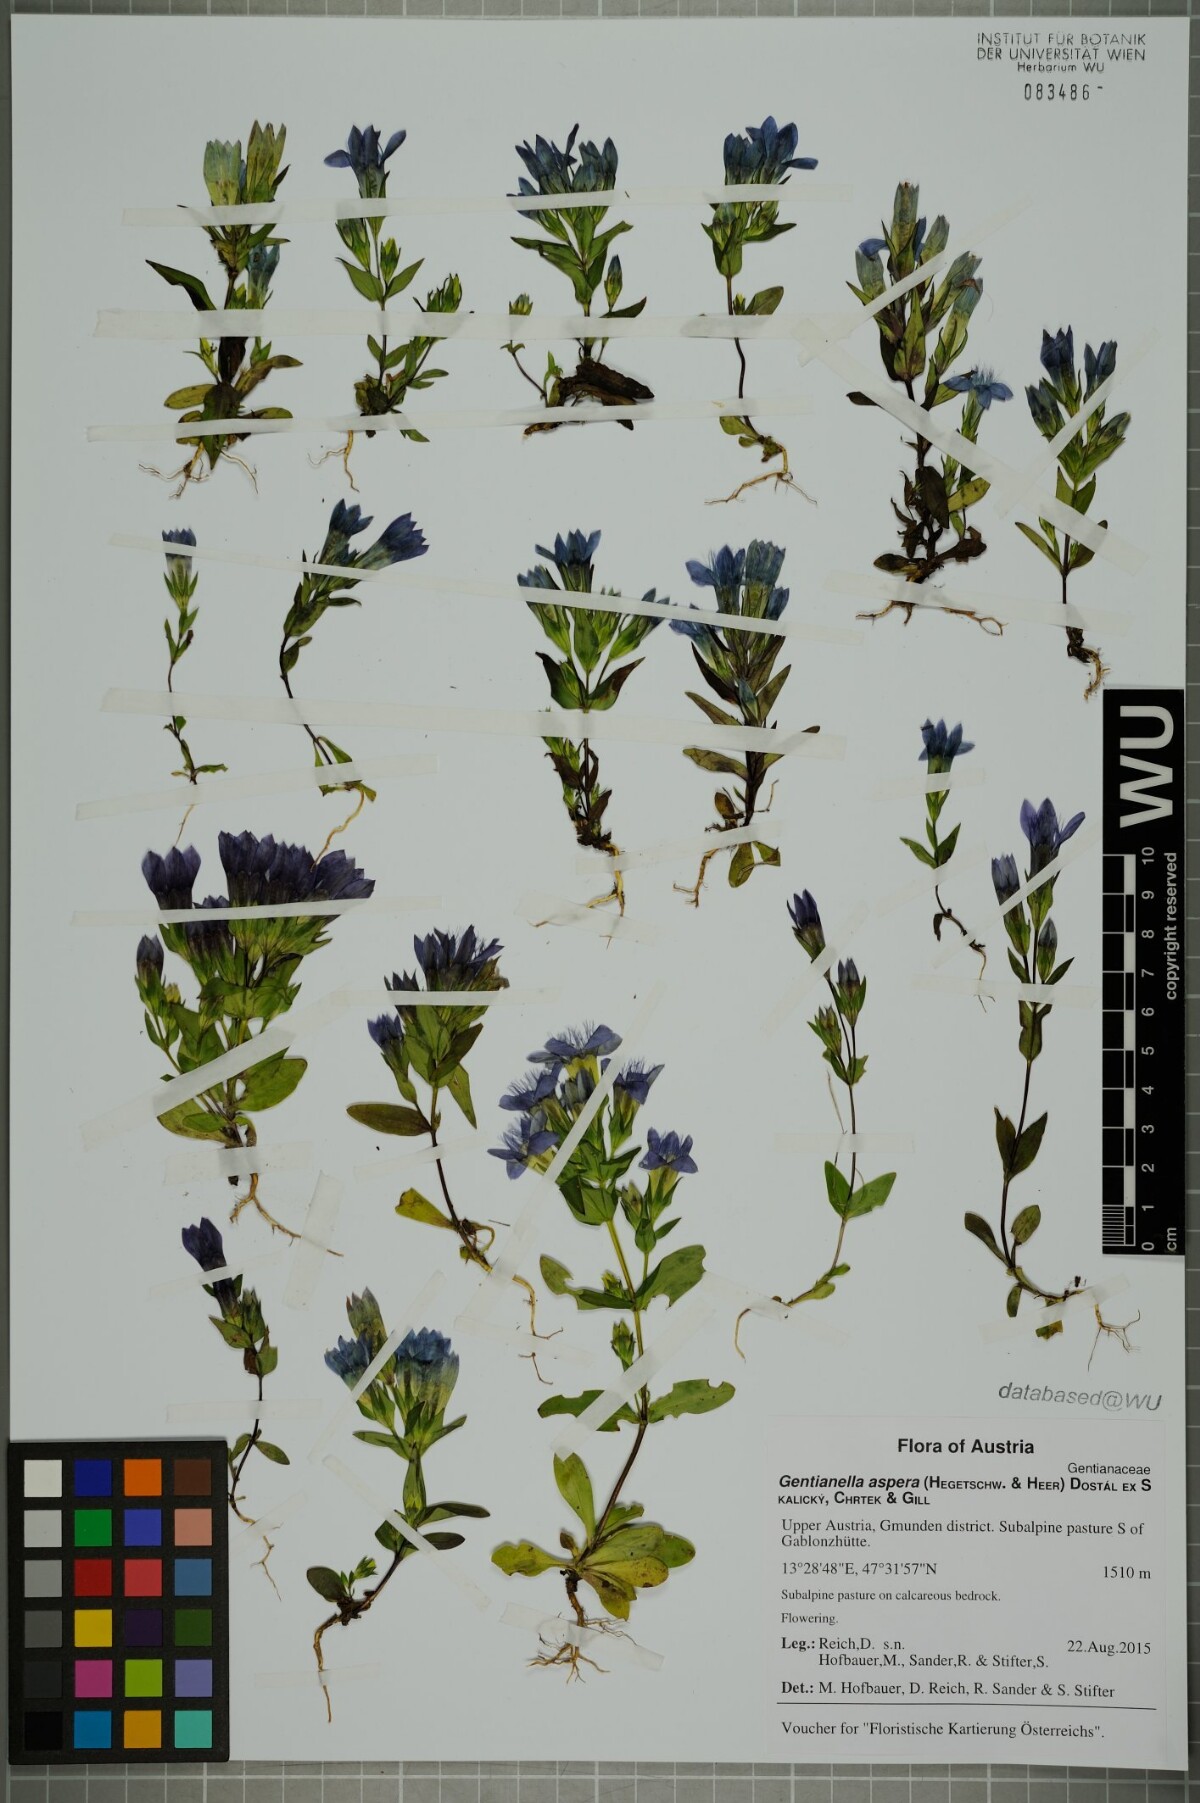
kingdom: Plantae
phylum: Tracheophyta
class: Magnoliopsida
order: Gentianales
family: Gentianaceae
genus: Gentianella
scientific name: Gentianella obtusifolia
